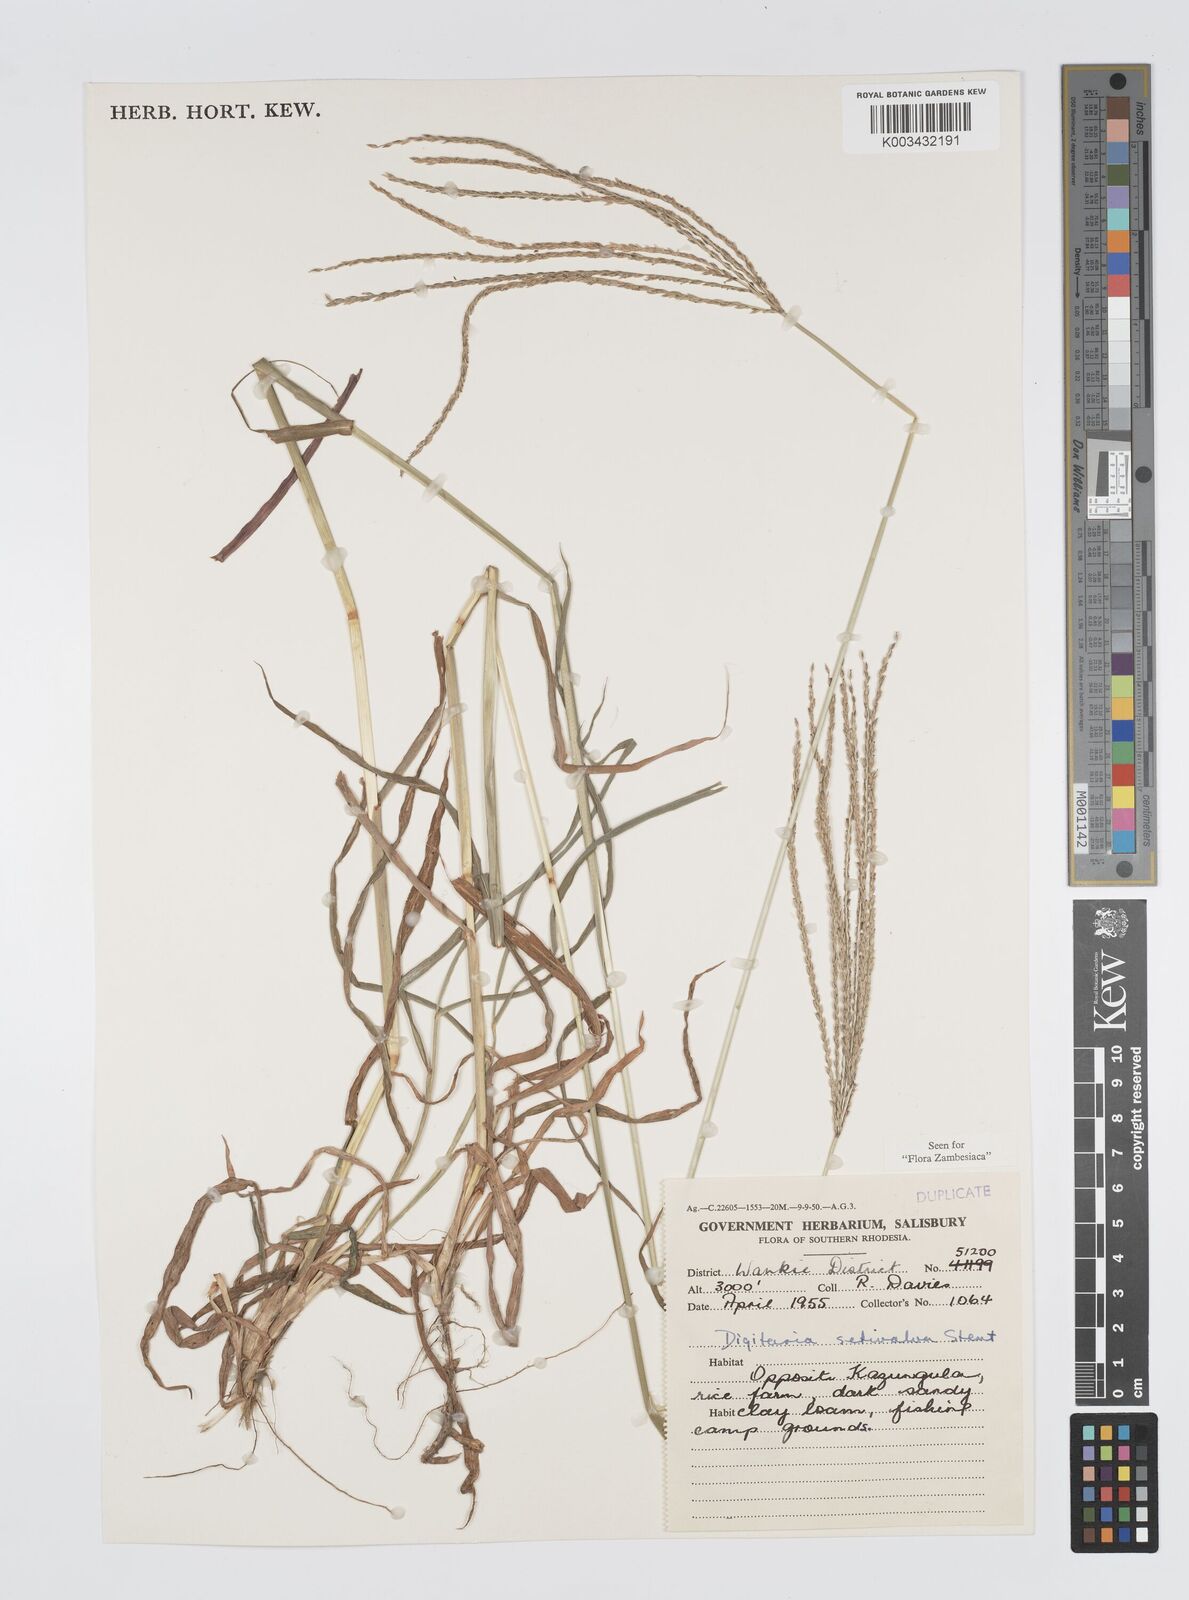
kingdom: Plantae
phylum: Tracheophyta
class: Liliopsida
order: Poales
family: Poaceae
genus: Digitaria
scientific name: Digitaria milanjiana
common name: Madagascar crabgrass
